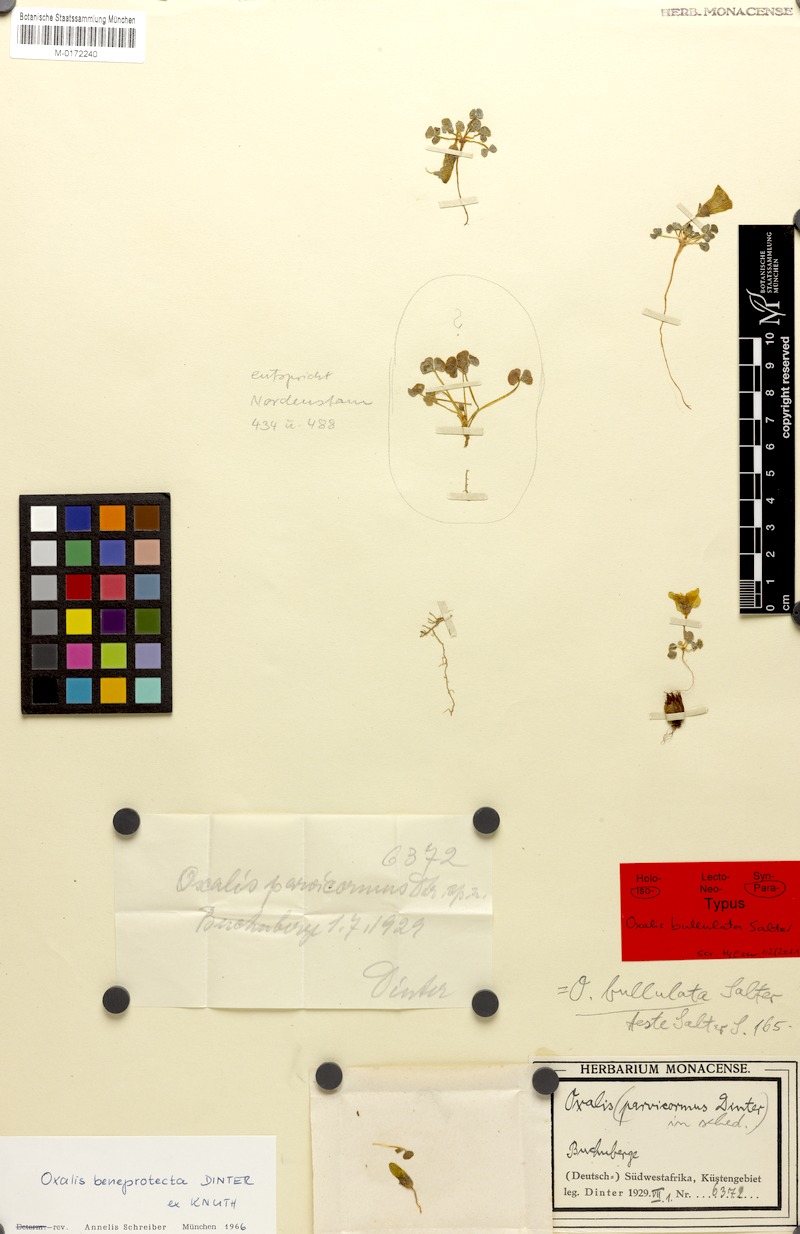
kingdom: Plantae
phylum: Tracheophyta
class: Magnoliopsida
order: Oxalidales
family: Oxalidaceae
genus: Oxalis
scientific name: Oxalis pulchella
